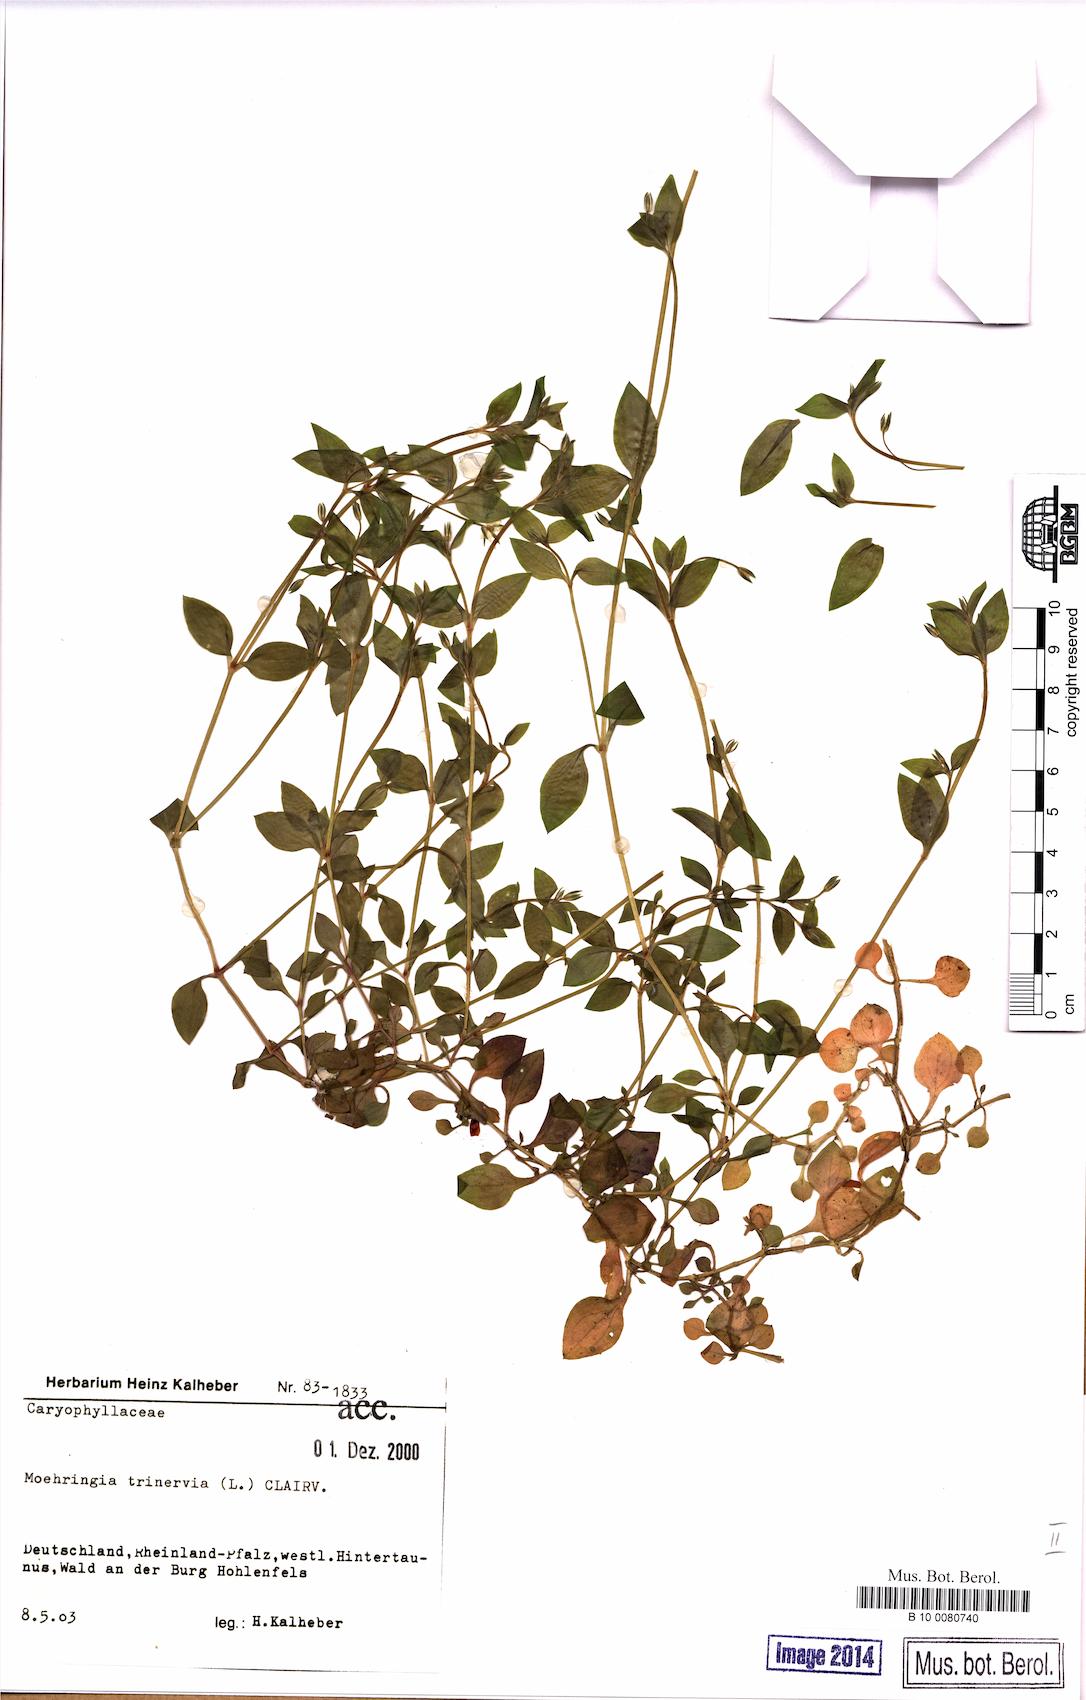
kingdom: Plantae
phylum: Tracheophyta
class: Magnoliopsida
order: Caryophyllales
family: Caryophyllaceae
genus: Moehringia
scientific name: Moehringia trinervia
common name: Three-nerved sandwort
